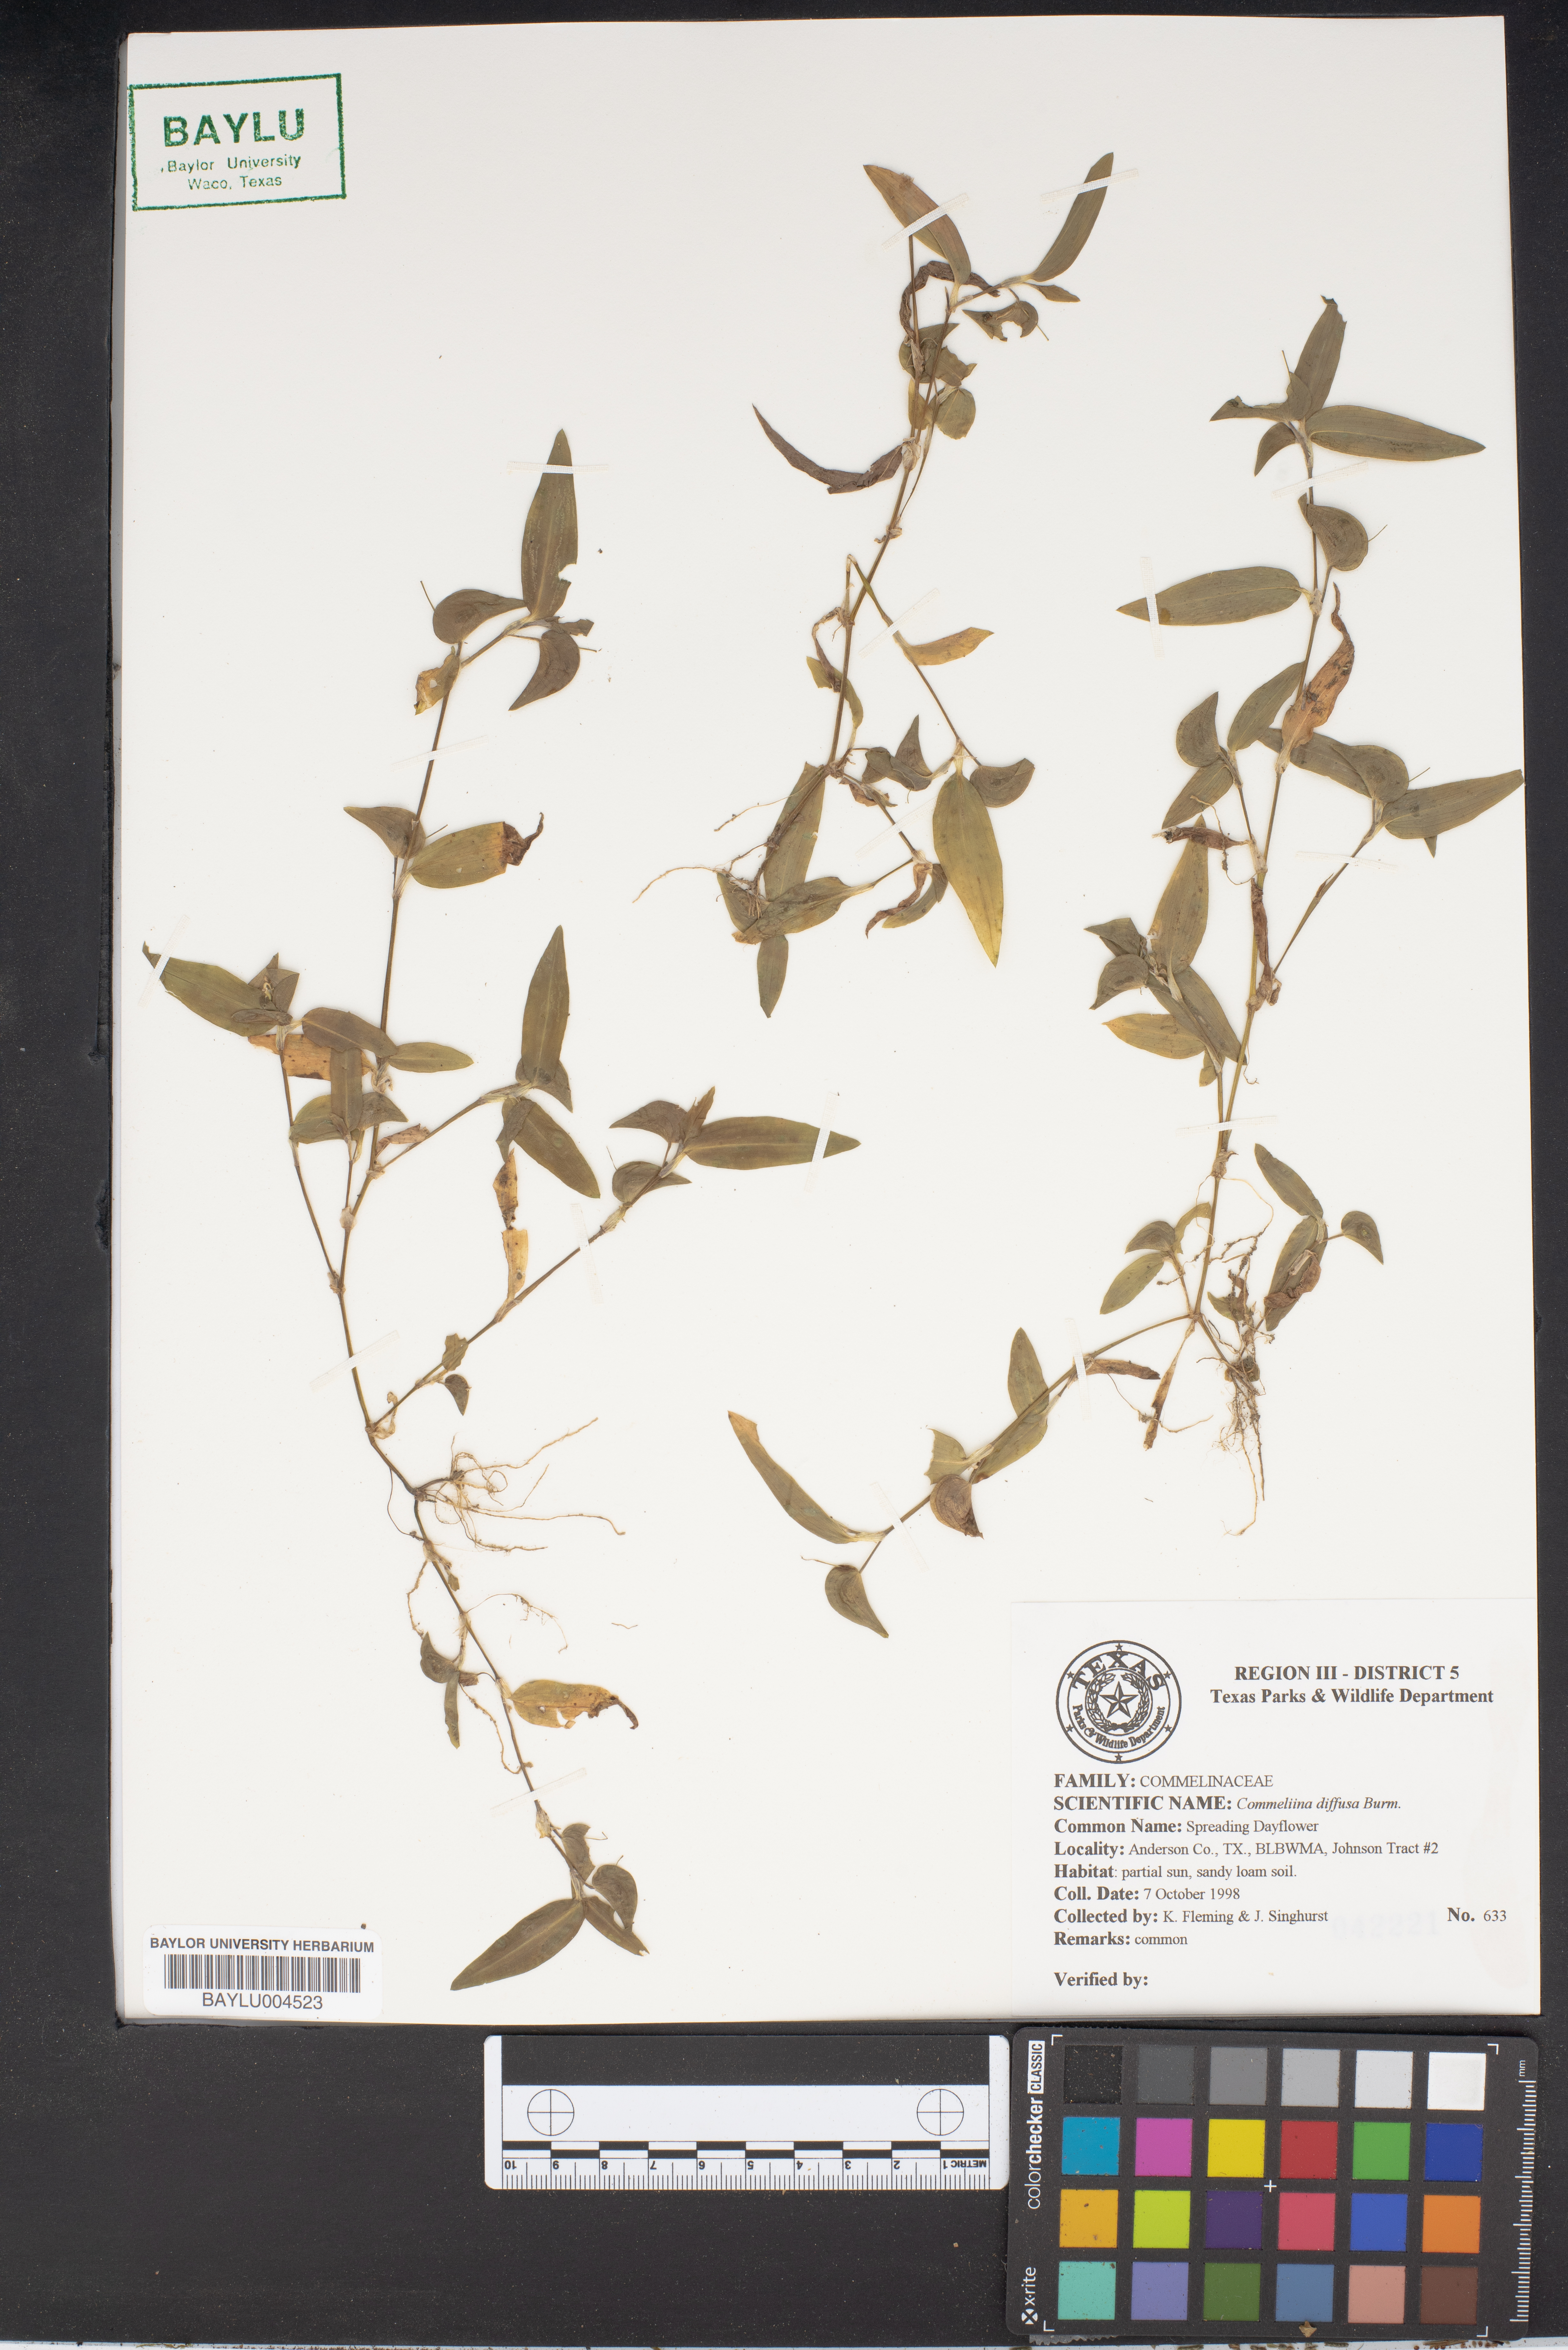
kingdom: Plantae
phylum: Tracheophyta
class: Liliopsida
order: Commelinales
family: Commelinaceae
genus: Commelina
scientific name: Commelina diffusa
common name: Climbing dayflower
